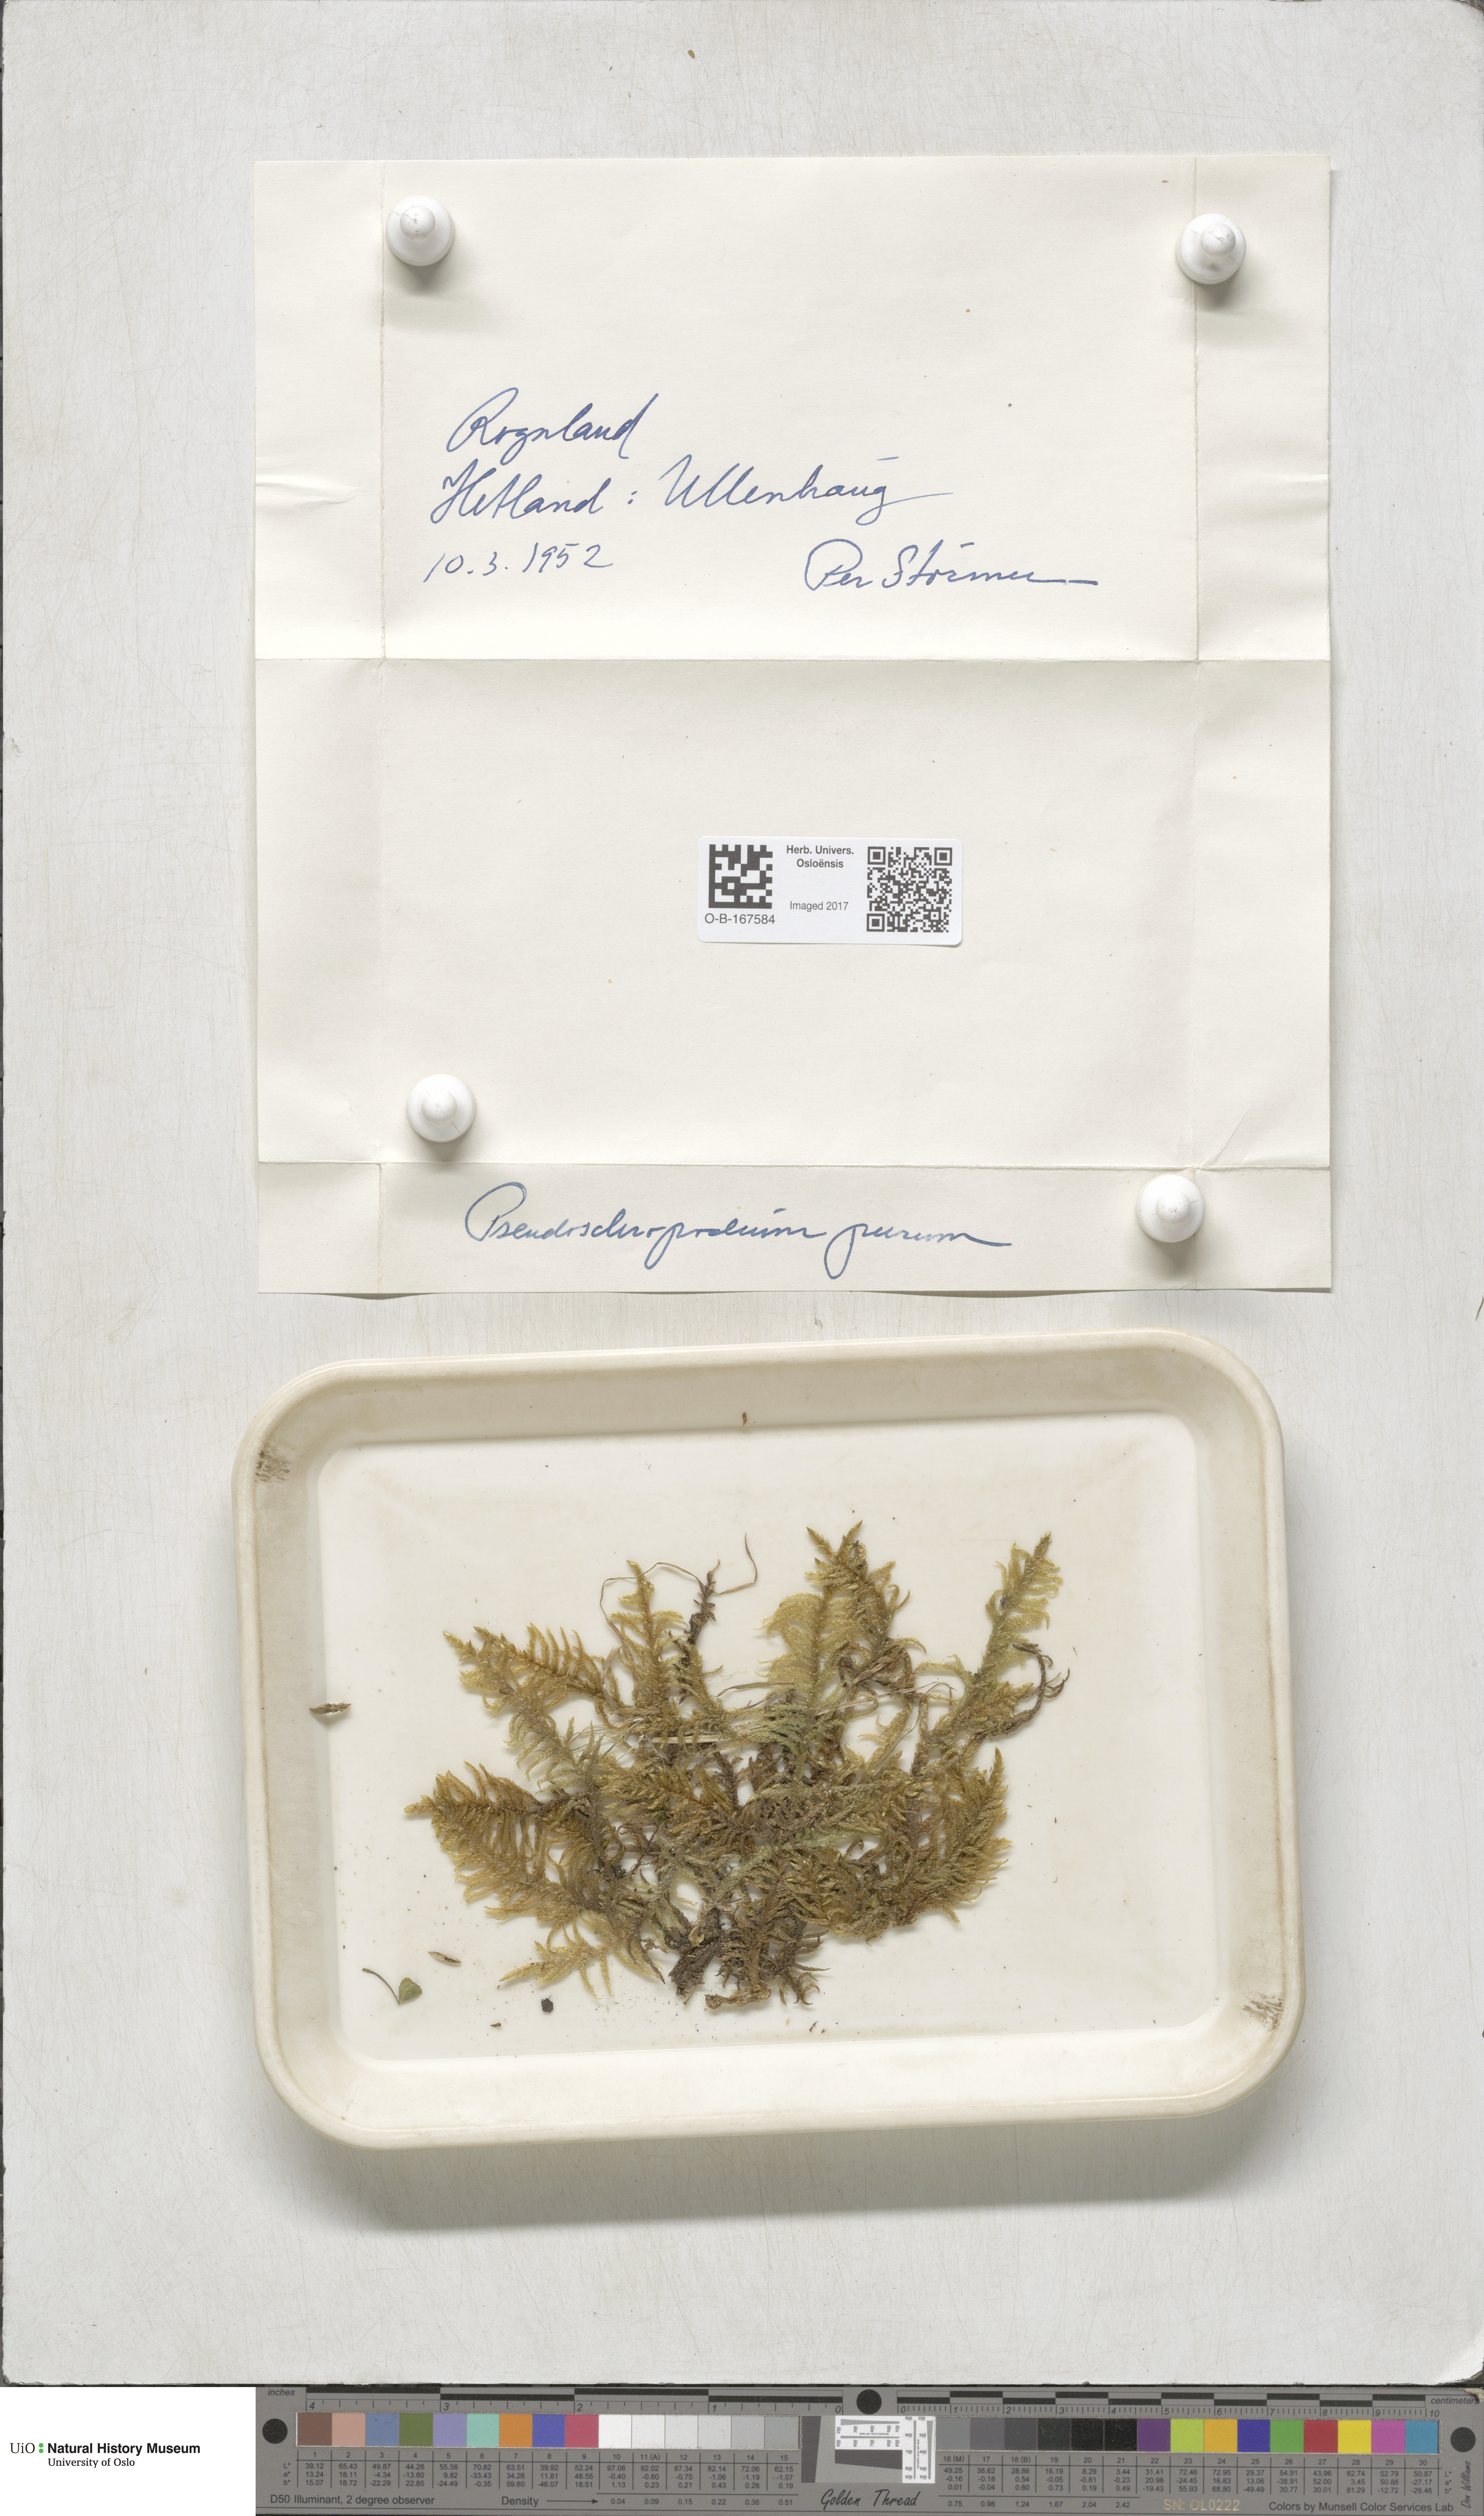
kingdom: Plantae
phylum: Bryophyta
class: Bryopsida
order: Hypnales
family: Brachytheciaceae
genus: Pseudoscleropodium
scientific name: Pseudoscleropodium purum
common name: Neat feather-moss
